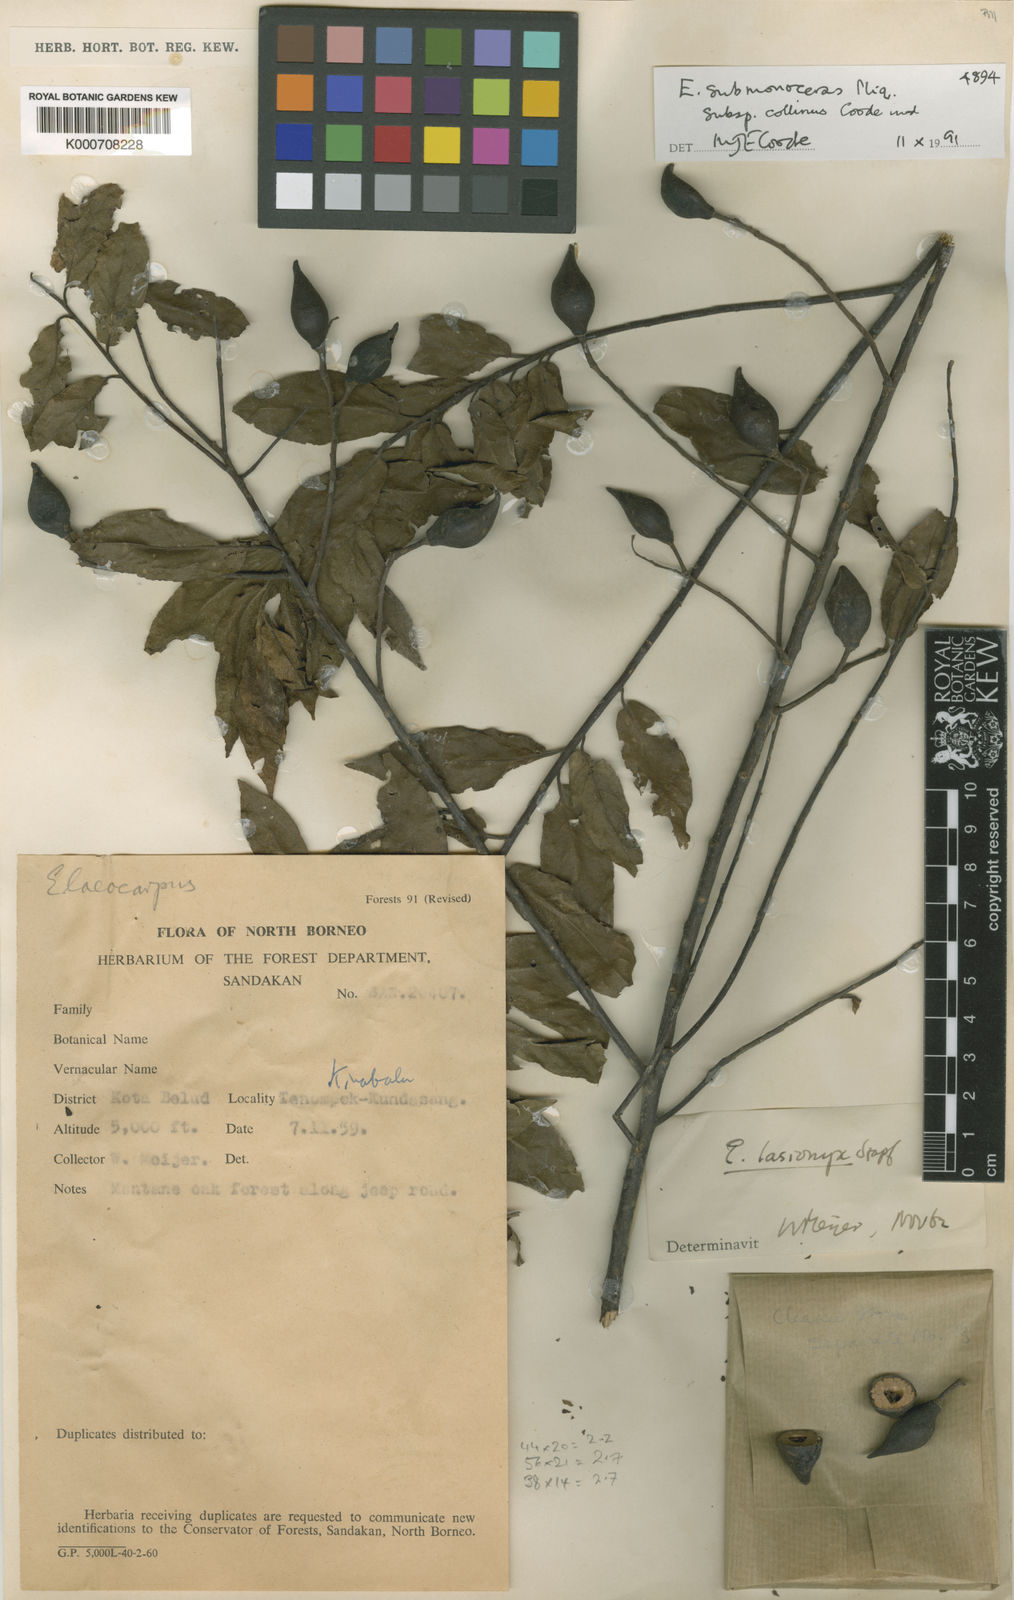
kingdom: Plantae
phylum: Tracheophyta
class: Magnoliopsida
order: Oxalidales
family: Elaeocarpaceae
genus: Elaeocarpus
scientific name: Elaeocarpus submonoceras
